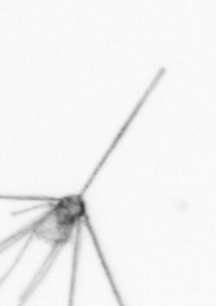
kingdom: Animalia
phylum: Echinodermata
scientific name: Echinodermata
